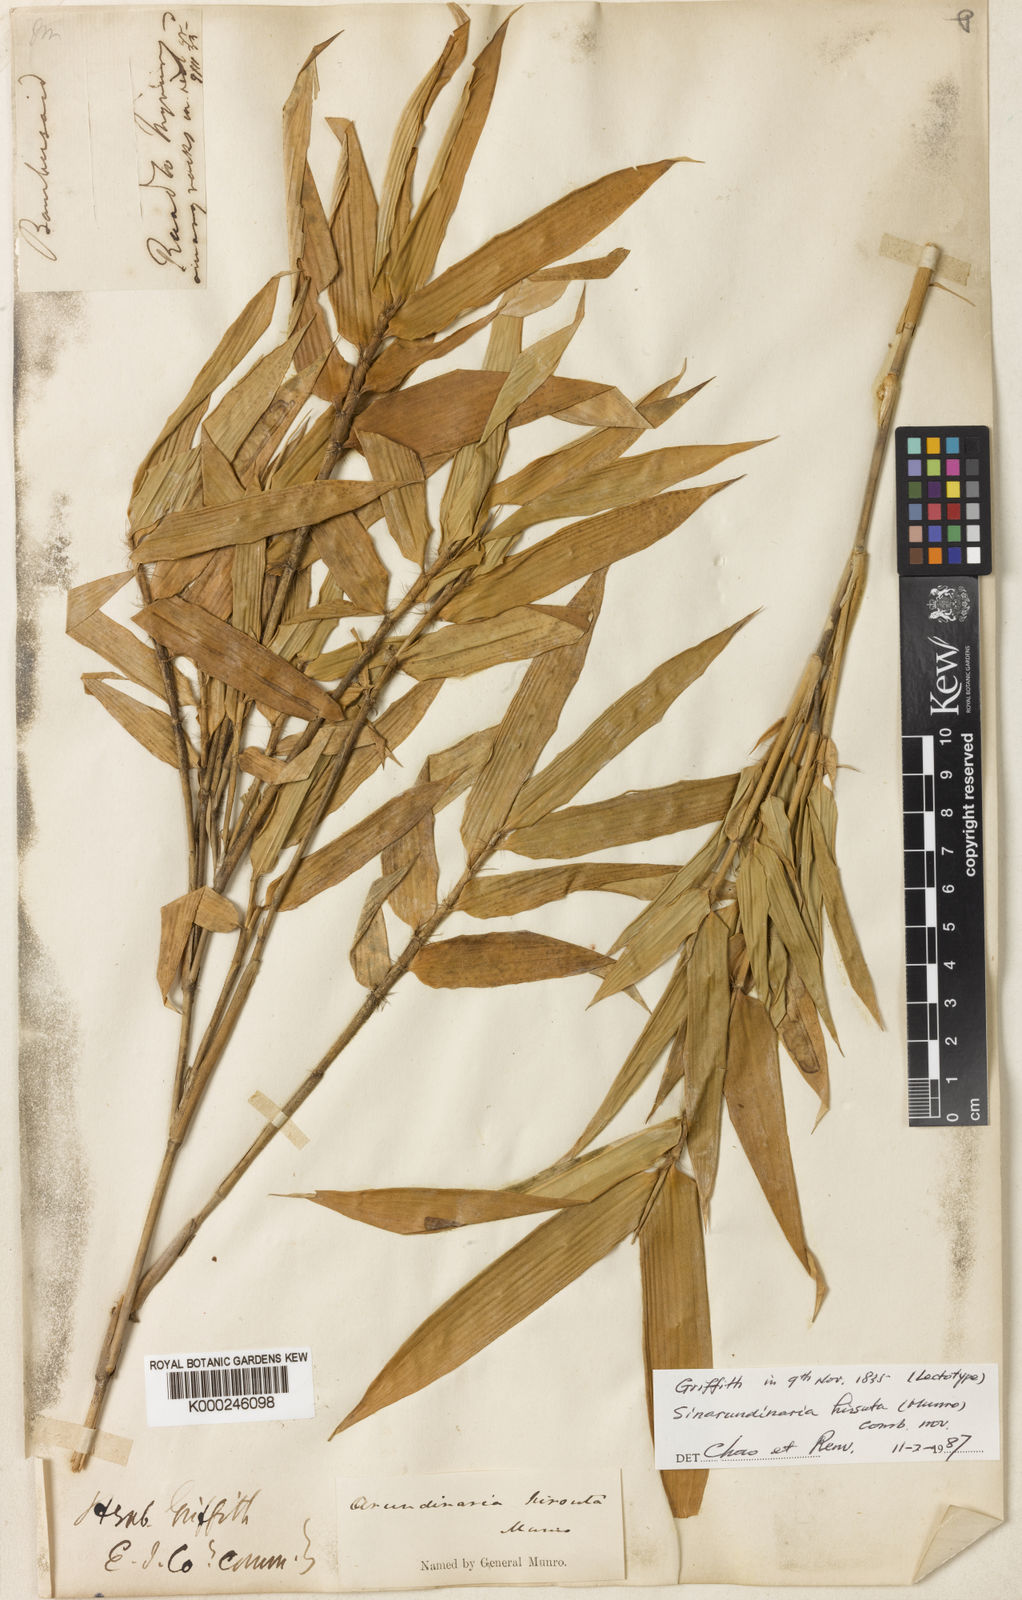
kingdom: Plantae
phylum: Tracheophyta
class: Liliopsida
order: Poales
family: Poaceae
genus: Yushania
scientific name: Yushania hirsuta
